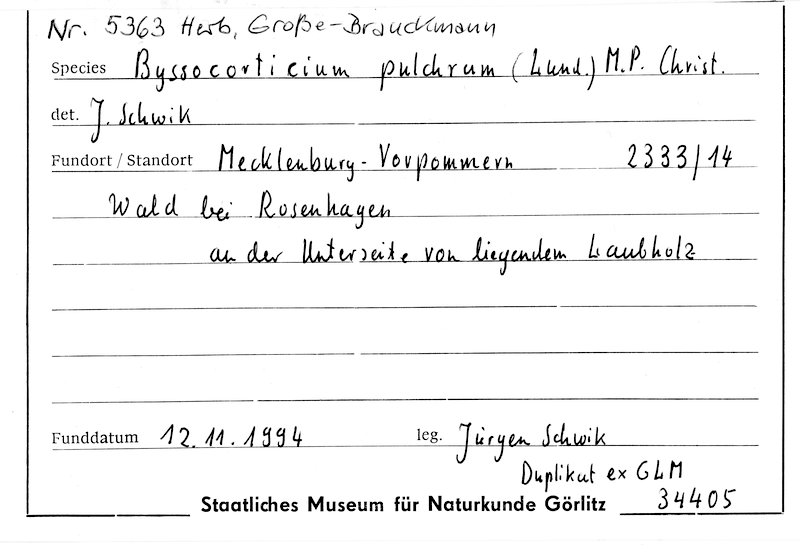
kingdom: Fungi
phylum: Basidiomycota
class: Agaricomycetes
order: Atheliales
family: Atheliaceae
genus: Byssocorticium
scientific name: Byssocorticium pulchrum
